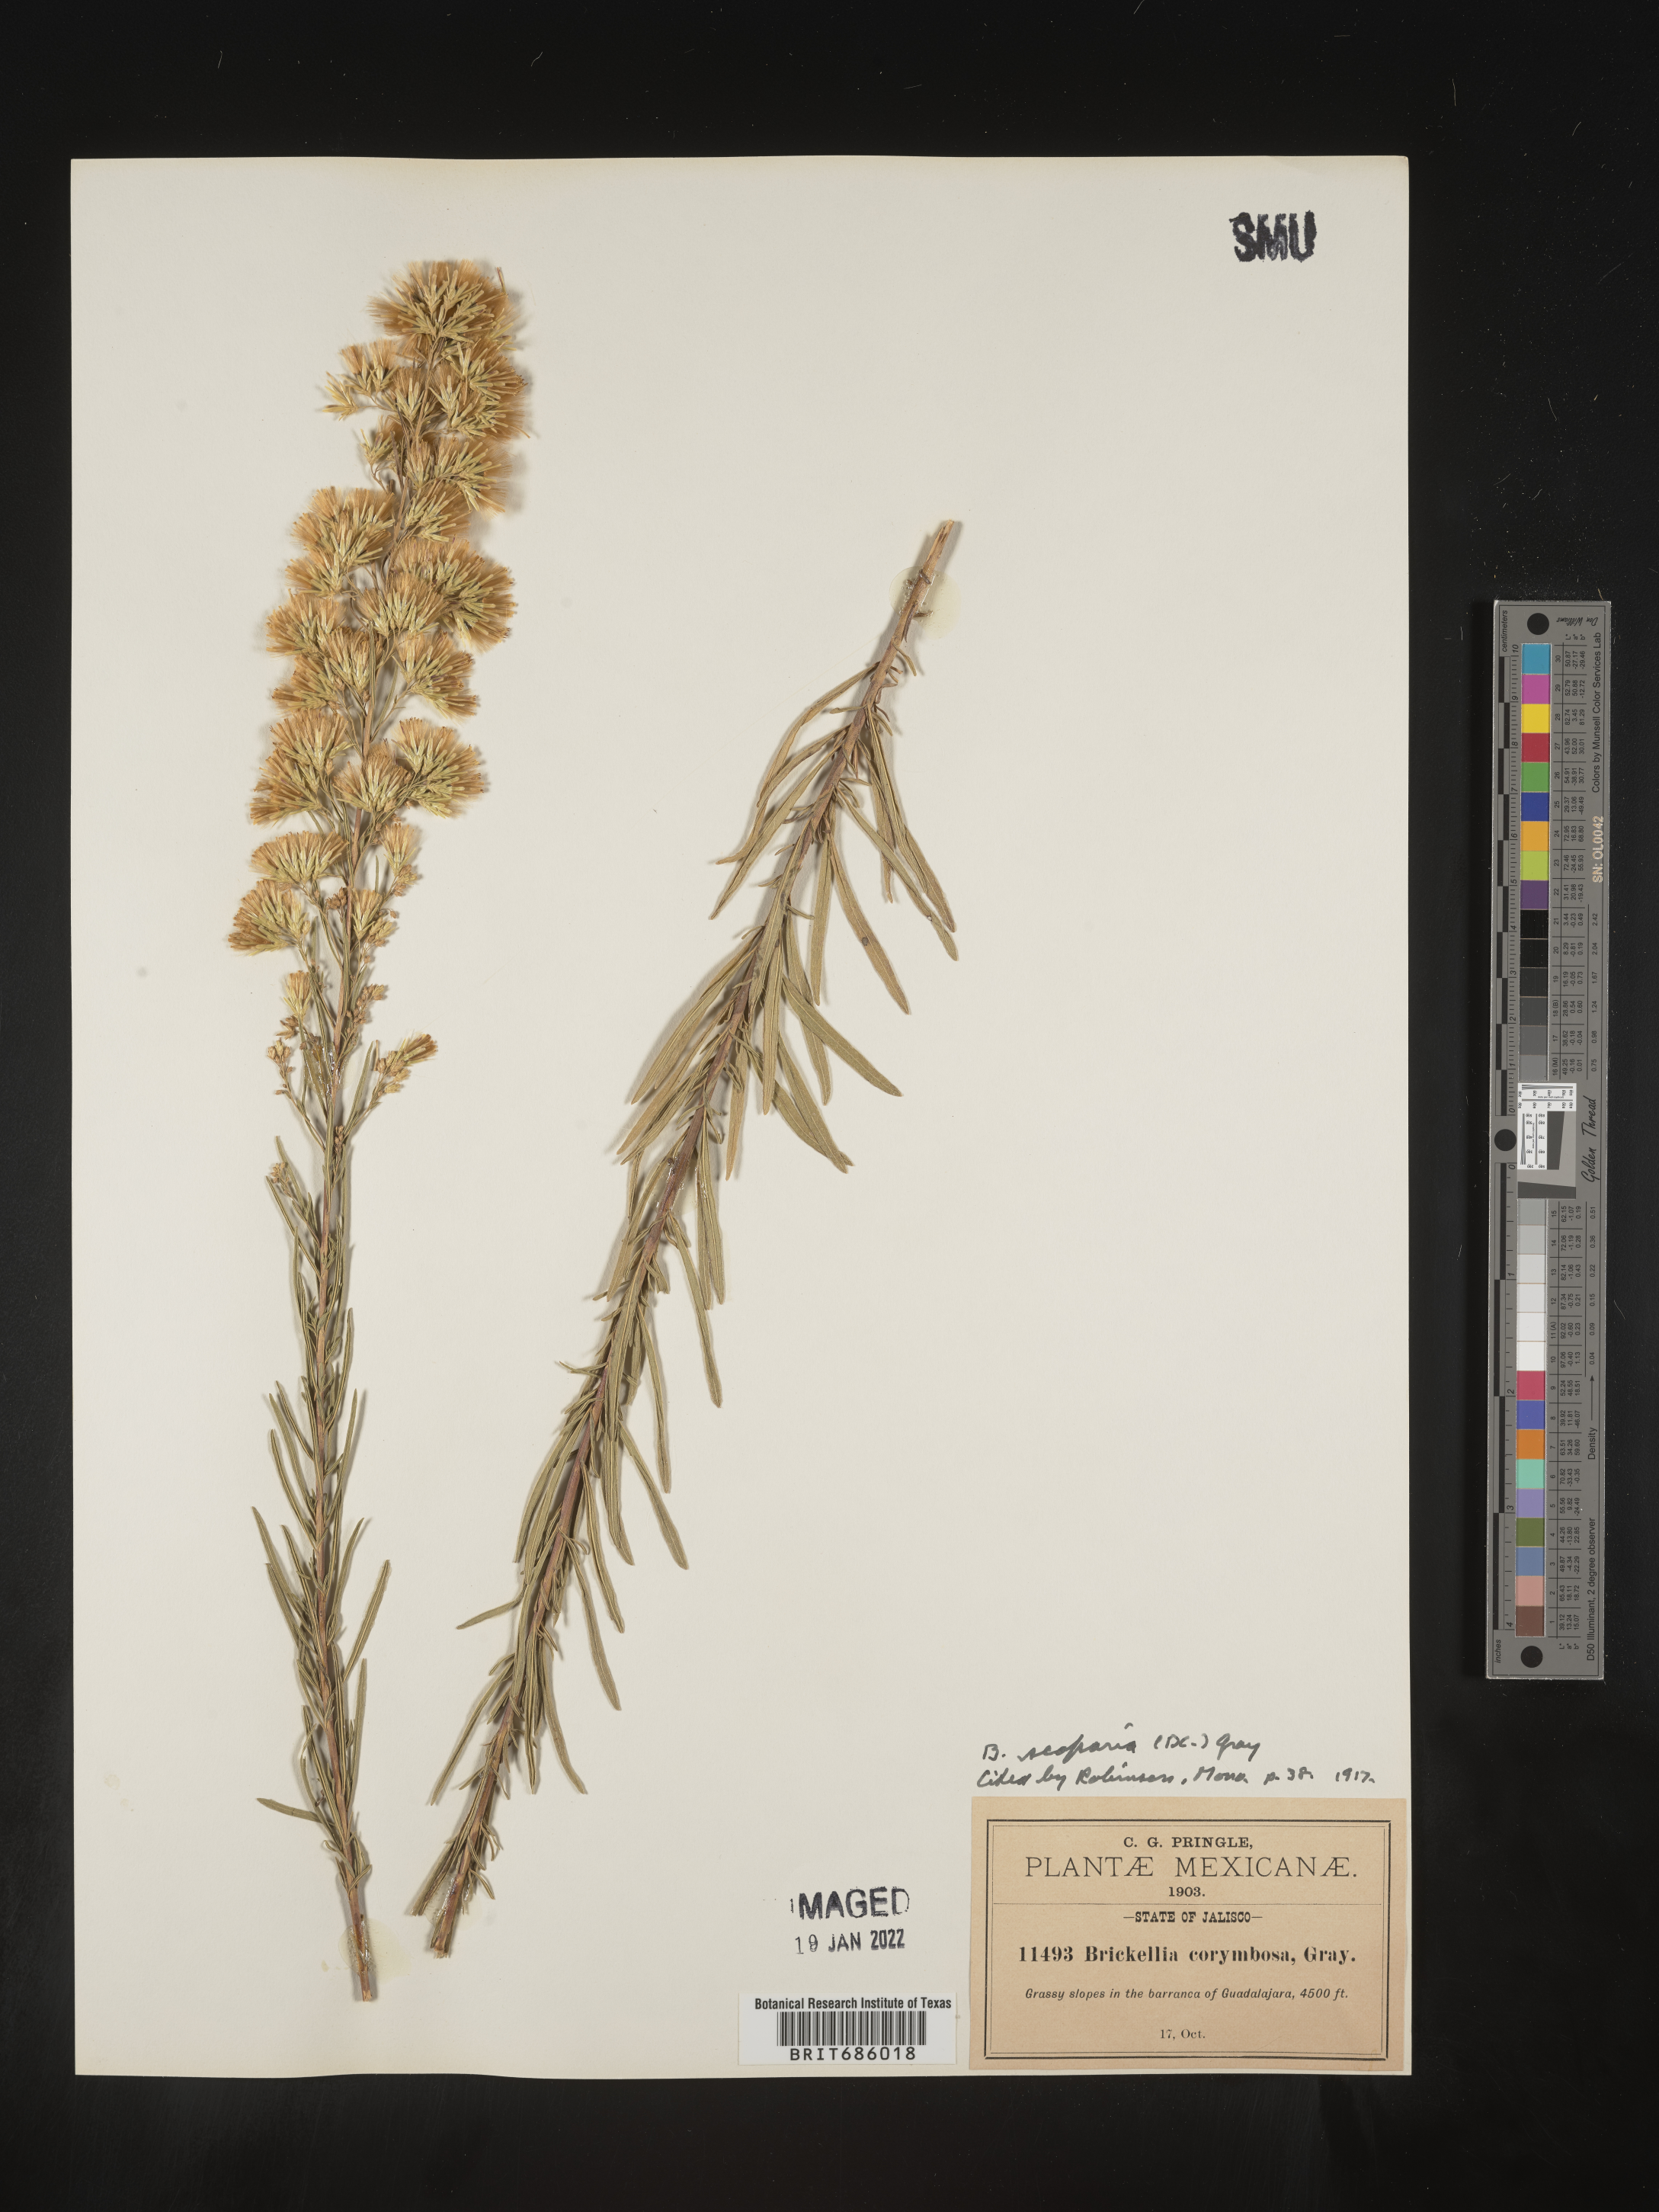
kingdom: Plantae
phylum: Tracheophyta
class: Magnoliopsida
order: Asterales
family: Asteraceae
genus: Brickellia
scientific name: Brickellia
